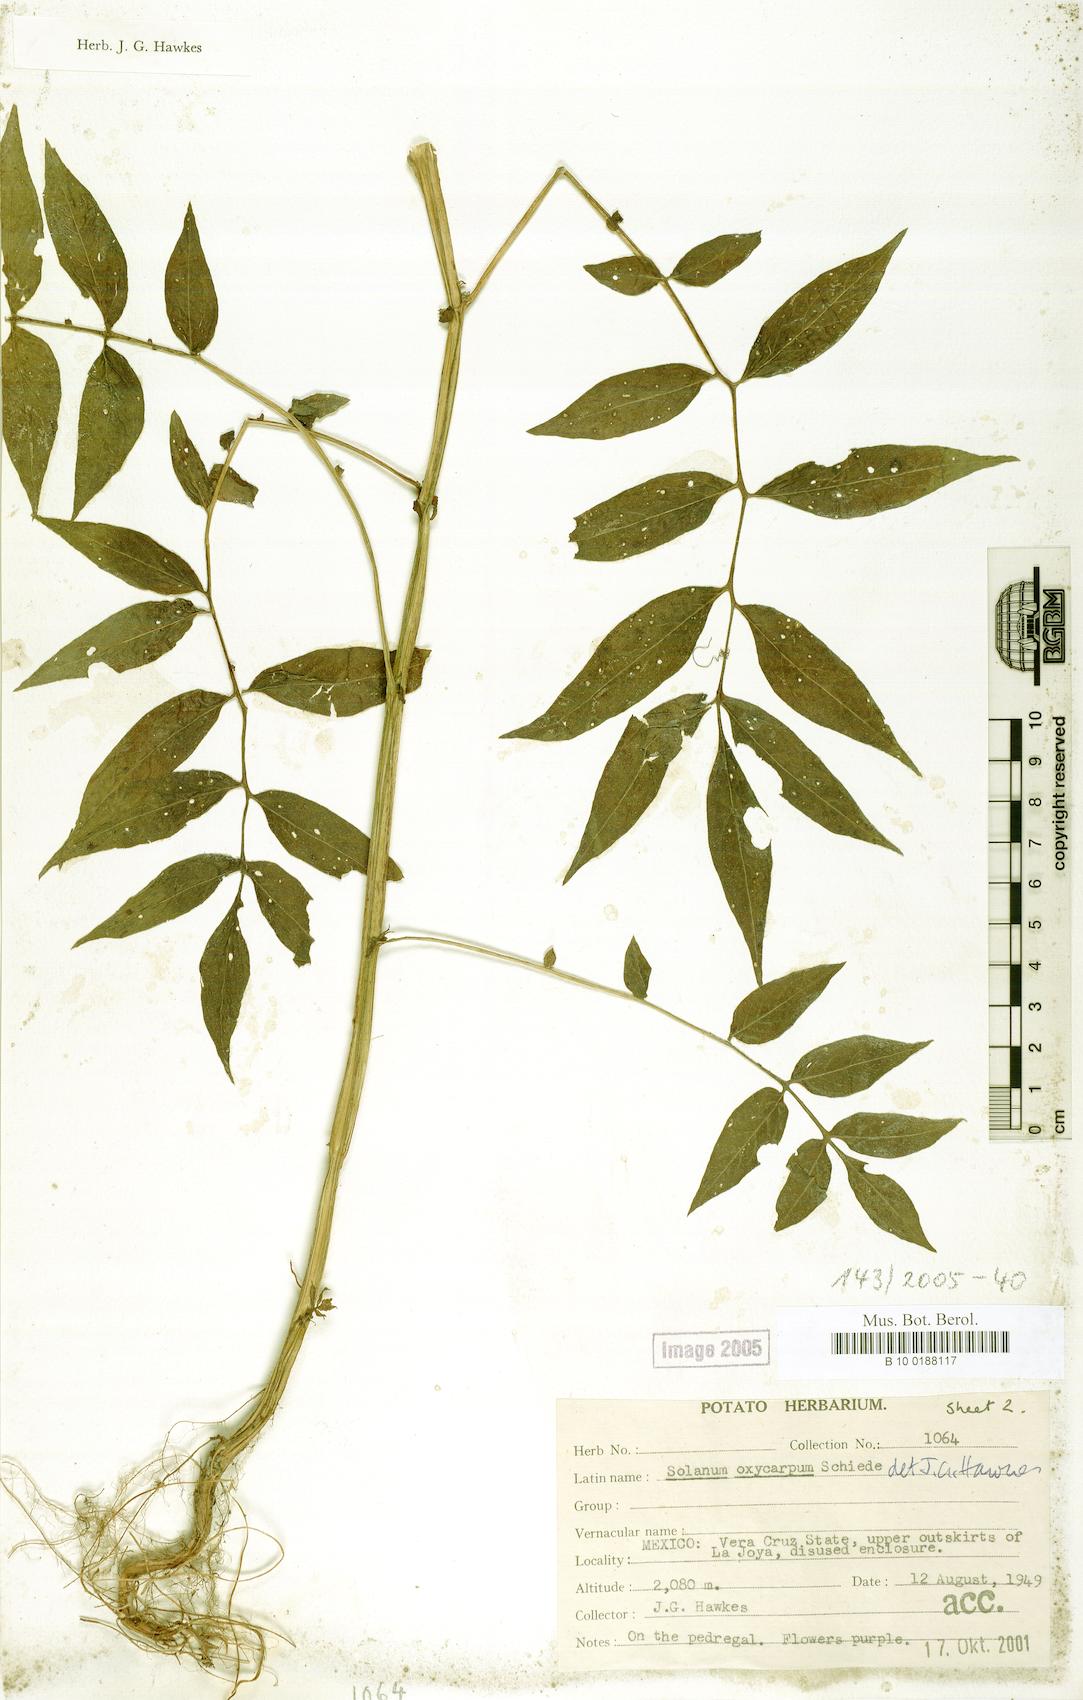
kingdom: Plantae
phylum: Tracheophyta
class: Magnoliopsida
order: Solanales
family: Solanaceae
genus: Solanum
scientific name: Solanum oxycarpum
